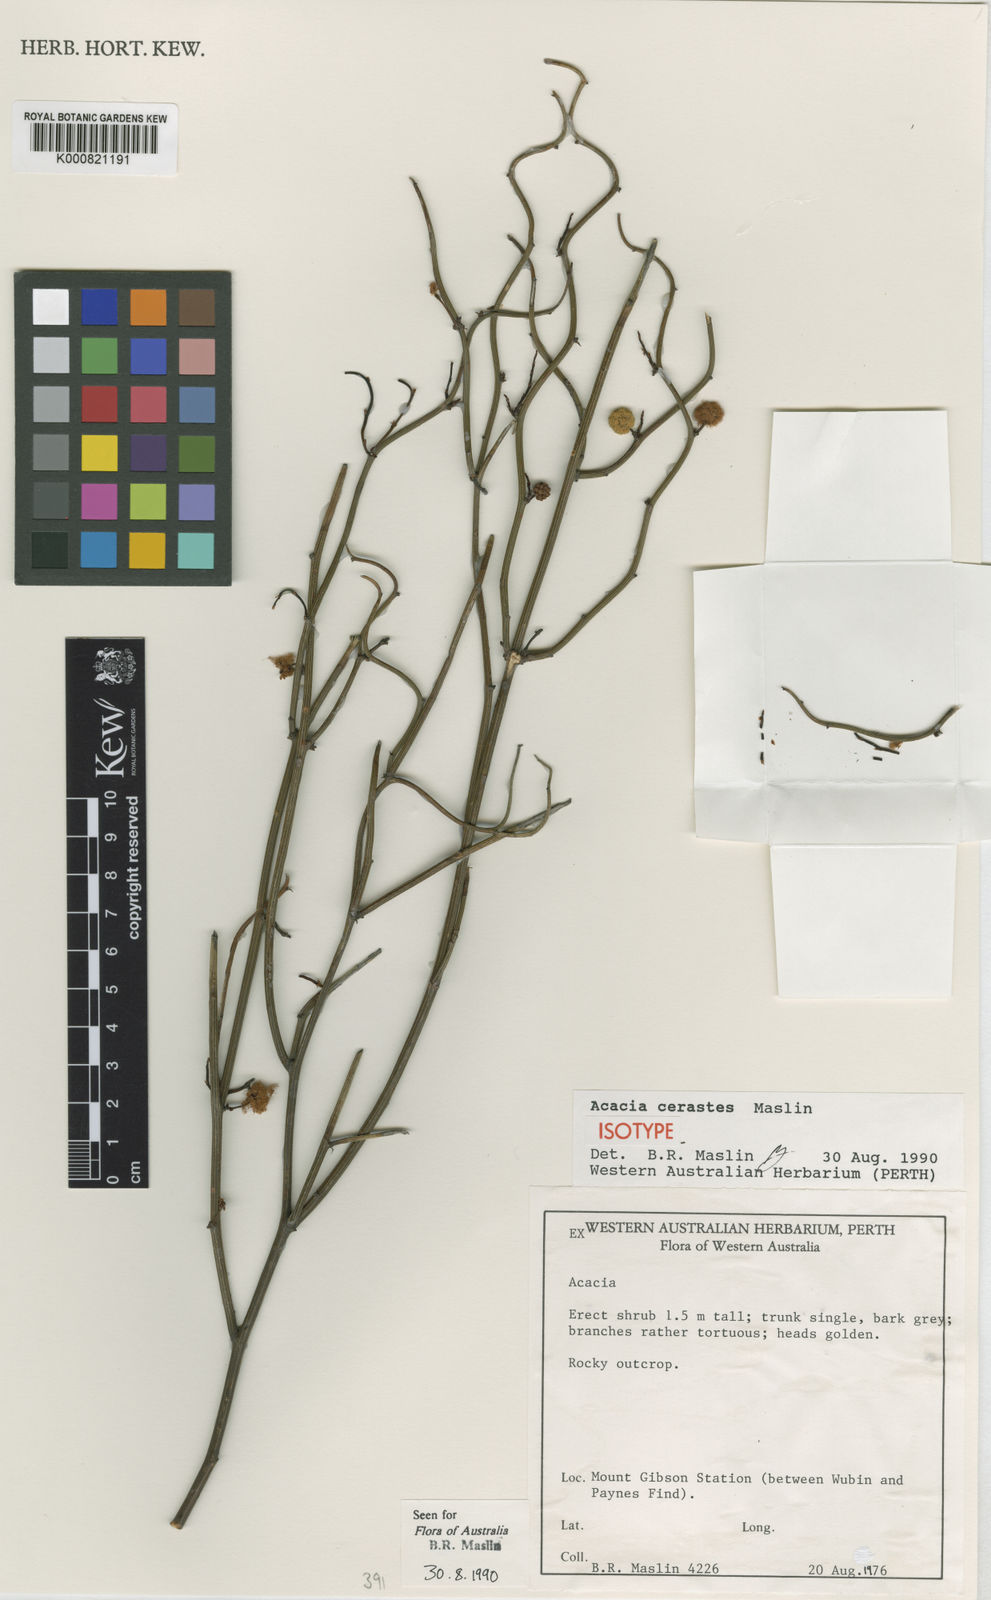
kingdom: Plantae
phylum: Tracheophyta
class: Magnoliopsida
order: Fabales
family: Fabaceae
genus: Acacia
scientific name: Acacia cerastes
